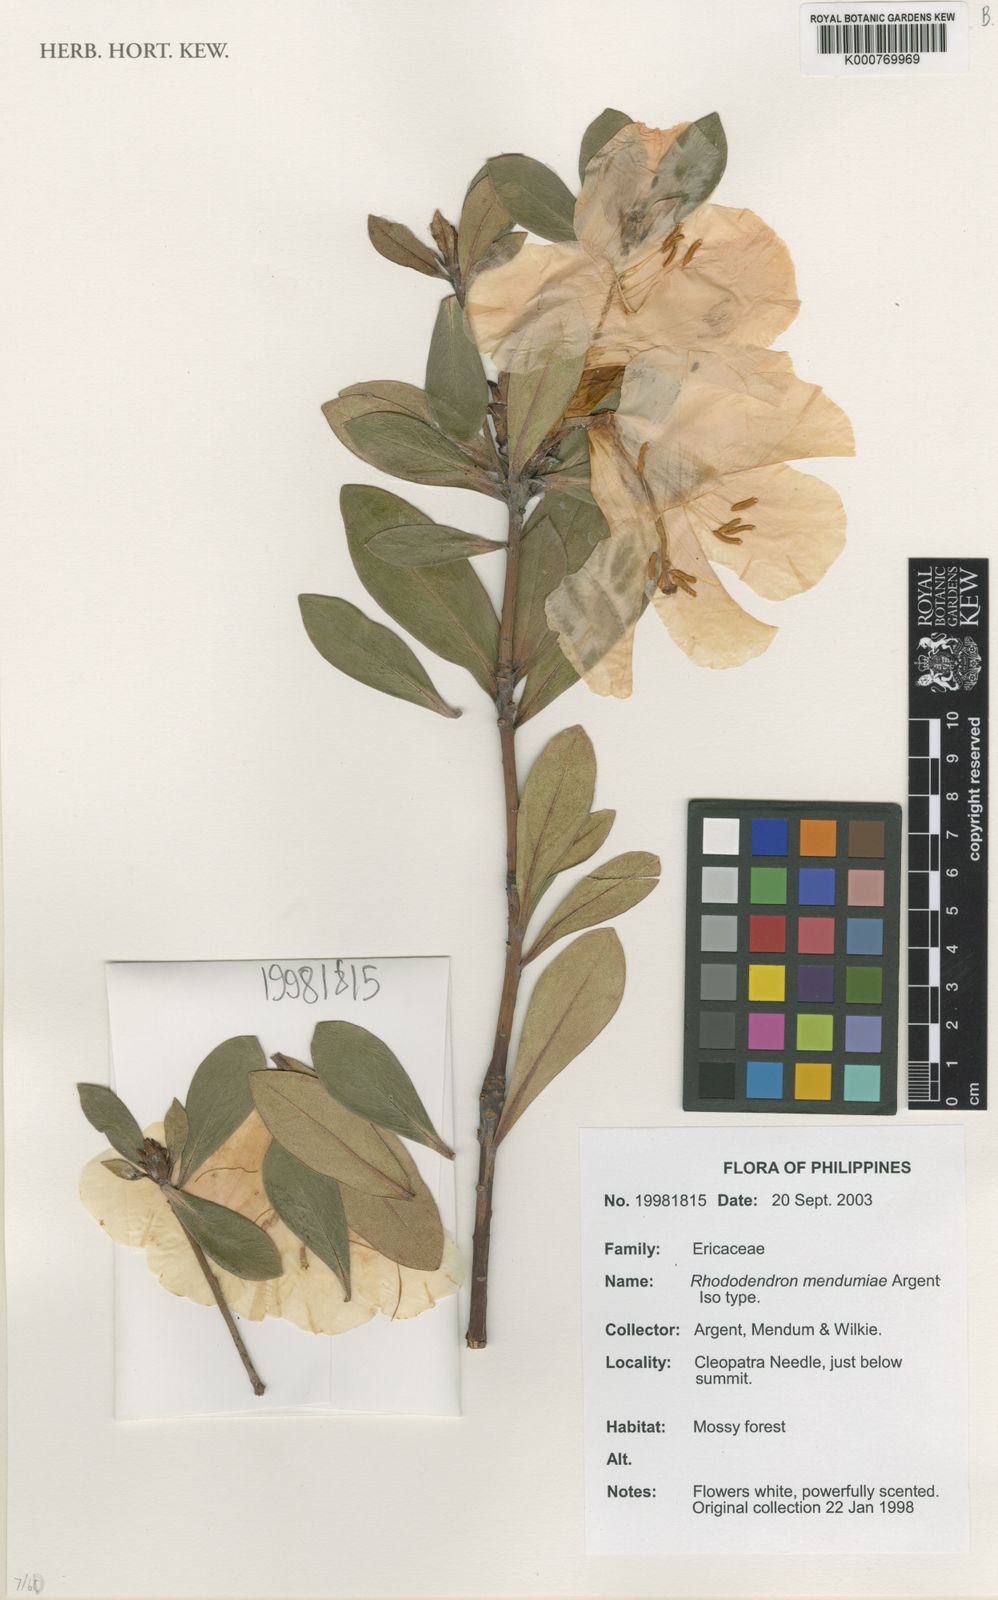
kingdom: Plantae
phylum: Tracheophyta
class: Magnoliopsida
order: Ericales
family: Ericaceae
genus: Rhododendron
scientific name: Rhododendron mendumiae
